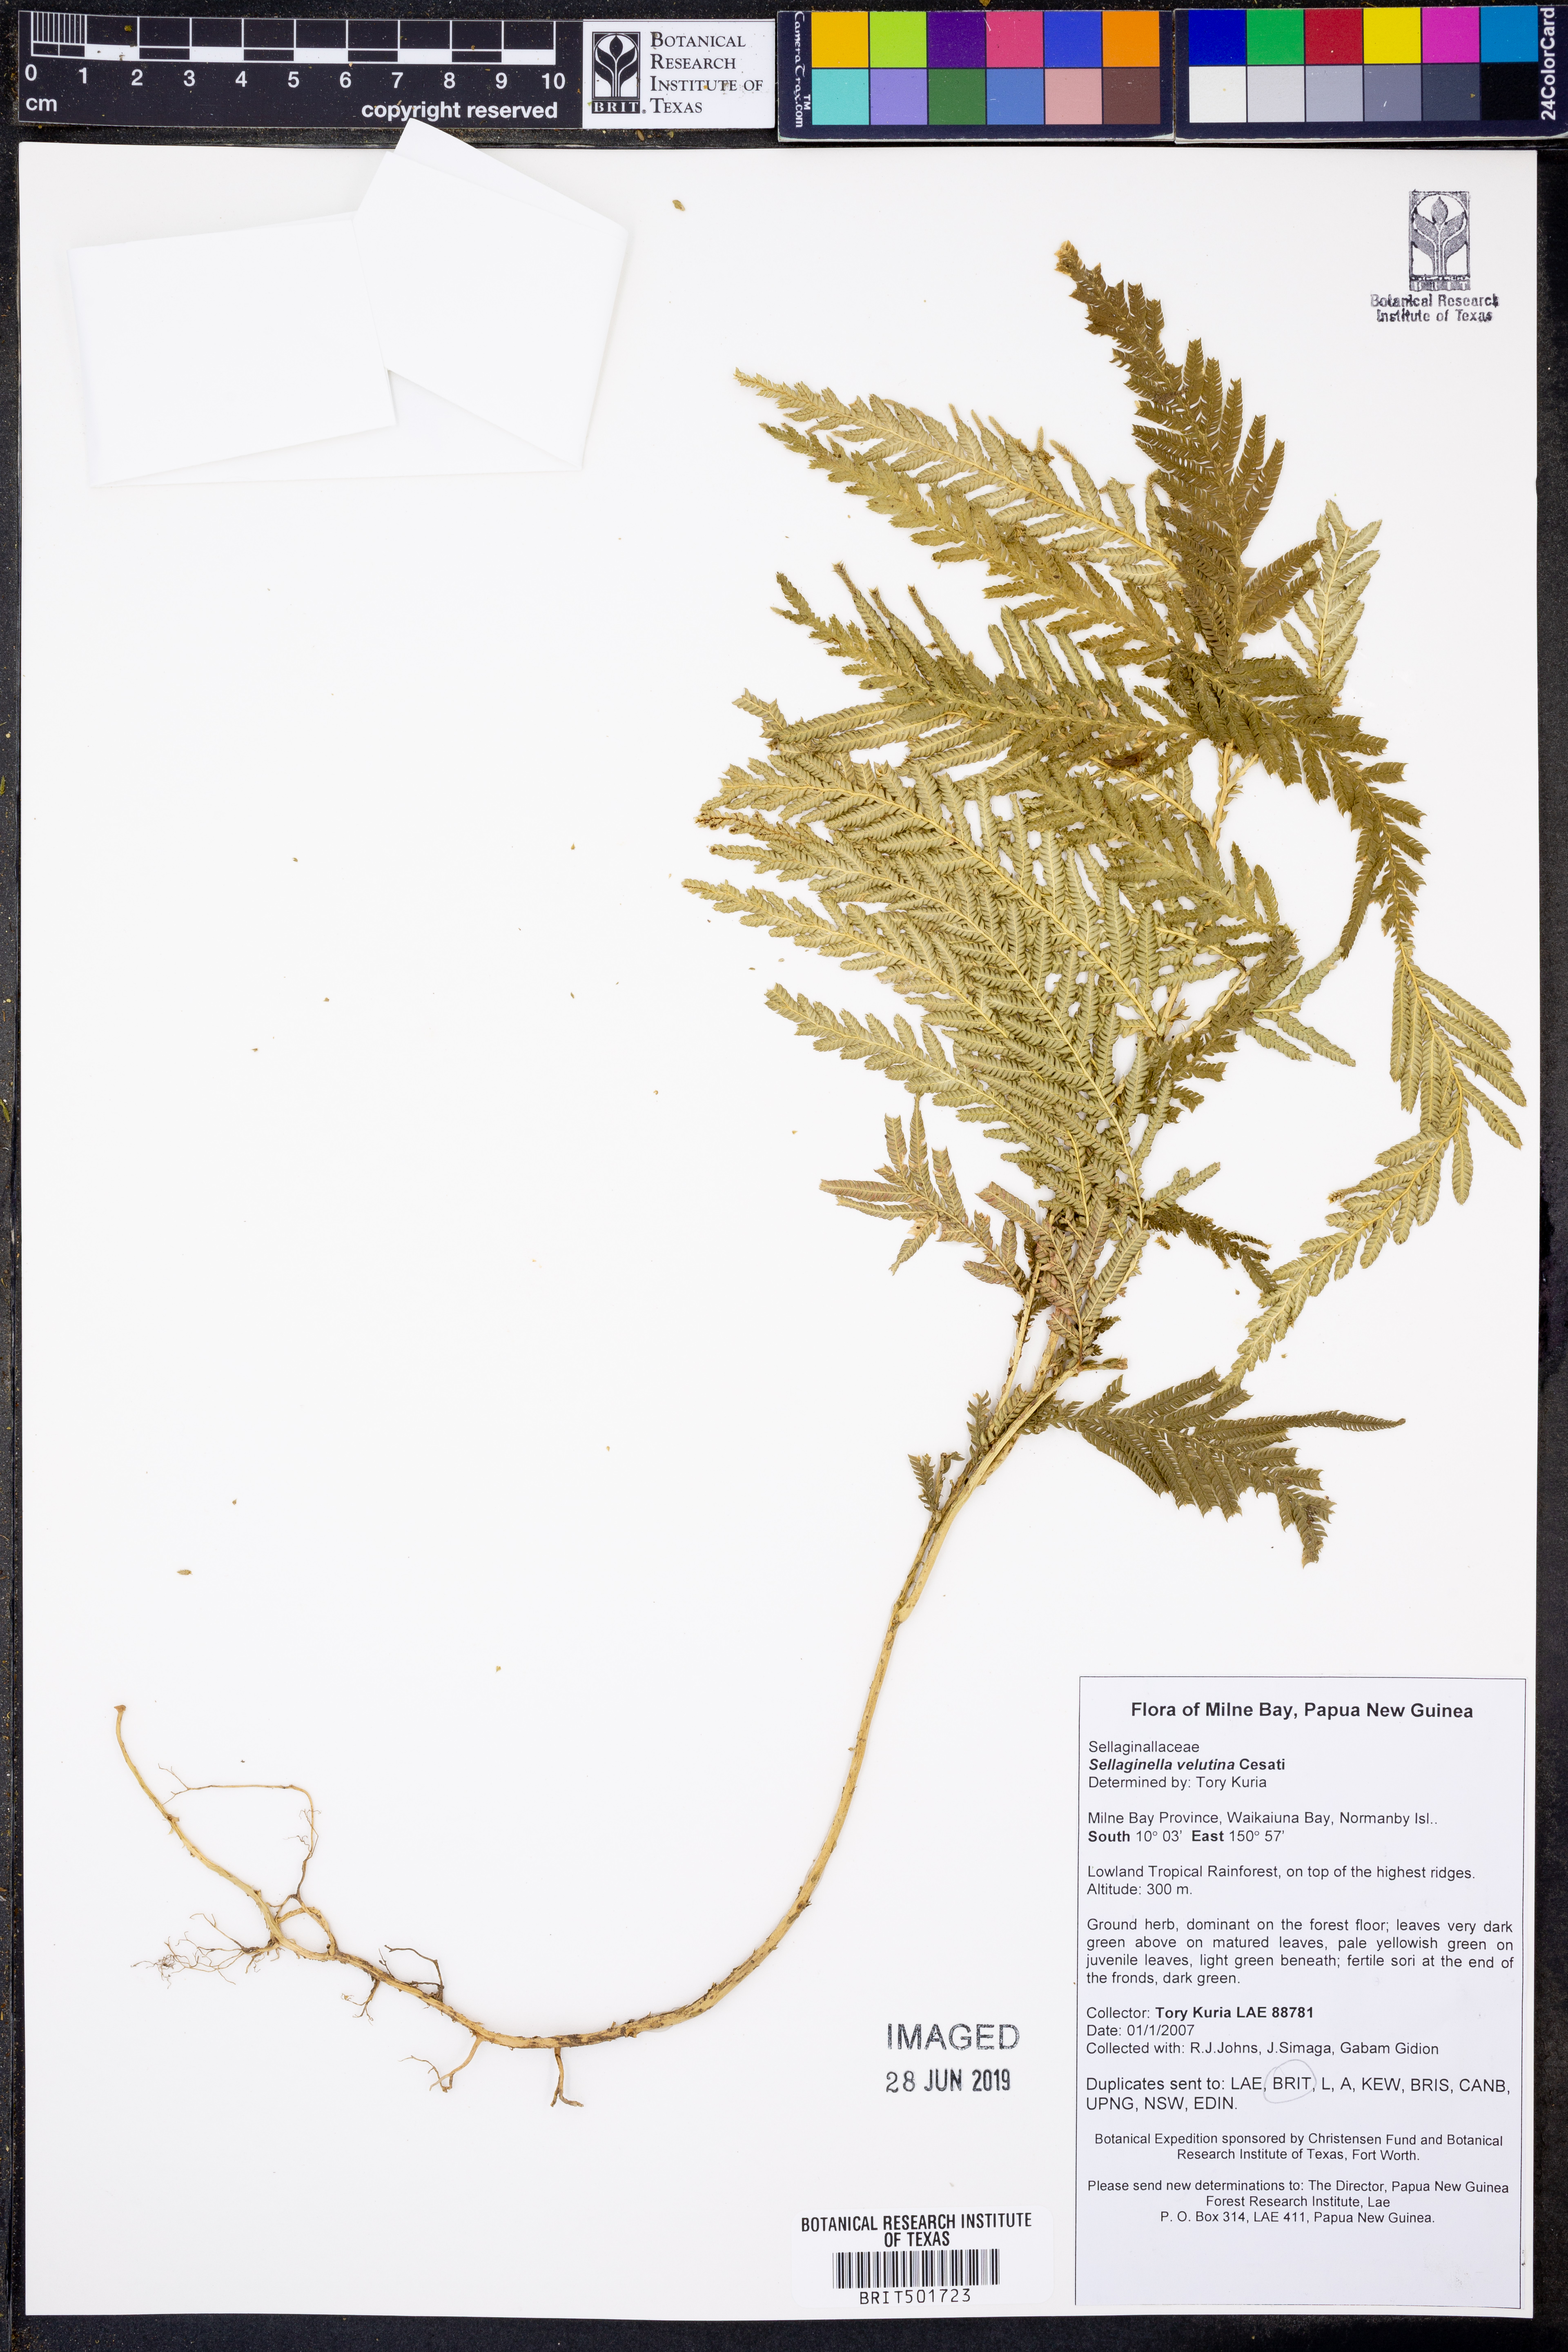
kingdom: Plantae
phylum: Tracheophyta
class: Lycopodiopsida
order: Selaginellales
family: Selaginellaceae
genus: Selaginella
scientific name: Selaginella velutina
